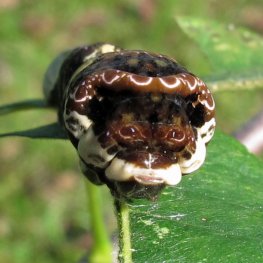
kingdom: Animalia
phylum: Arthropoda
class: Insecta
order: Lepidoptera
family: Papilionidae
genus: Papilio
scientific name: Papilio cresphontes
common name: Eastern Giant Swallowtail
